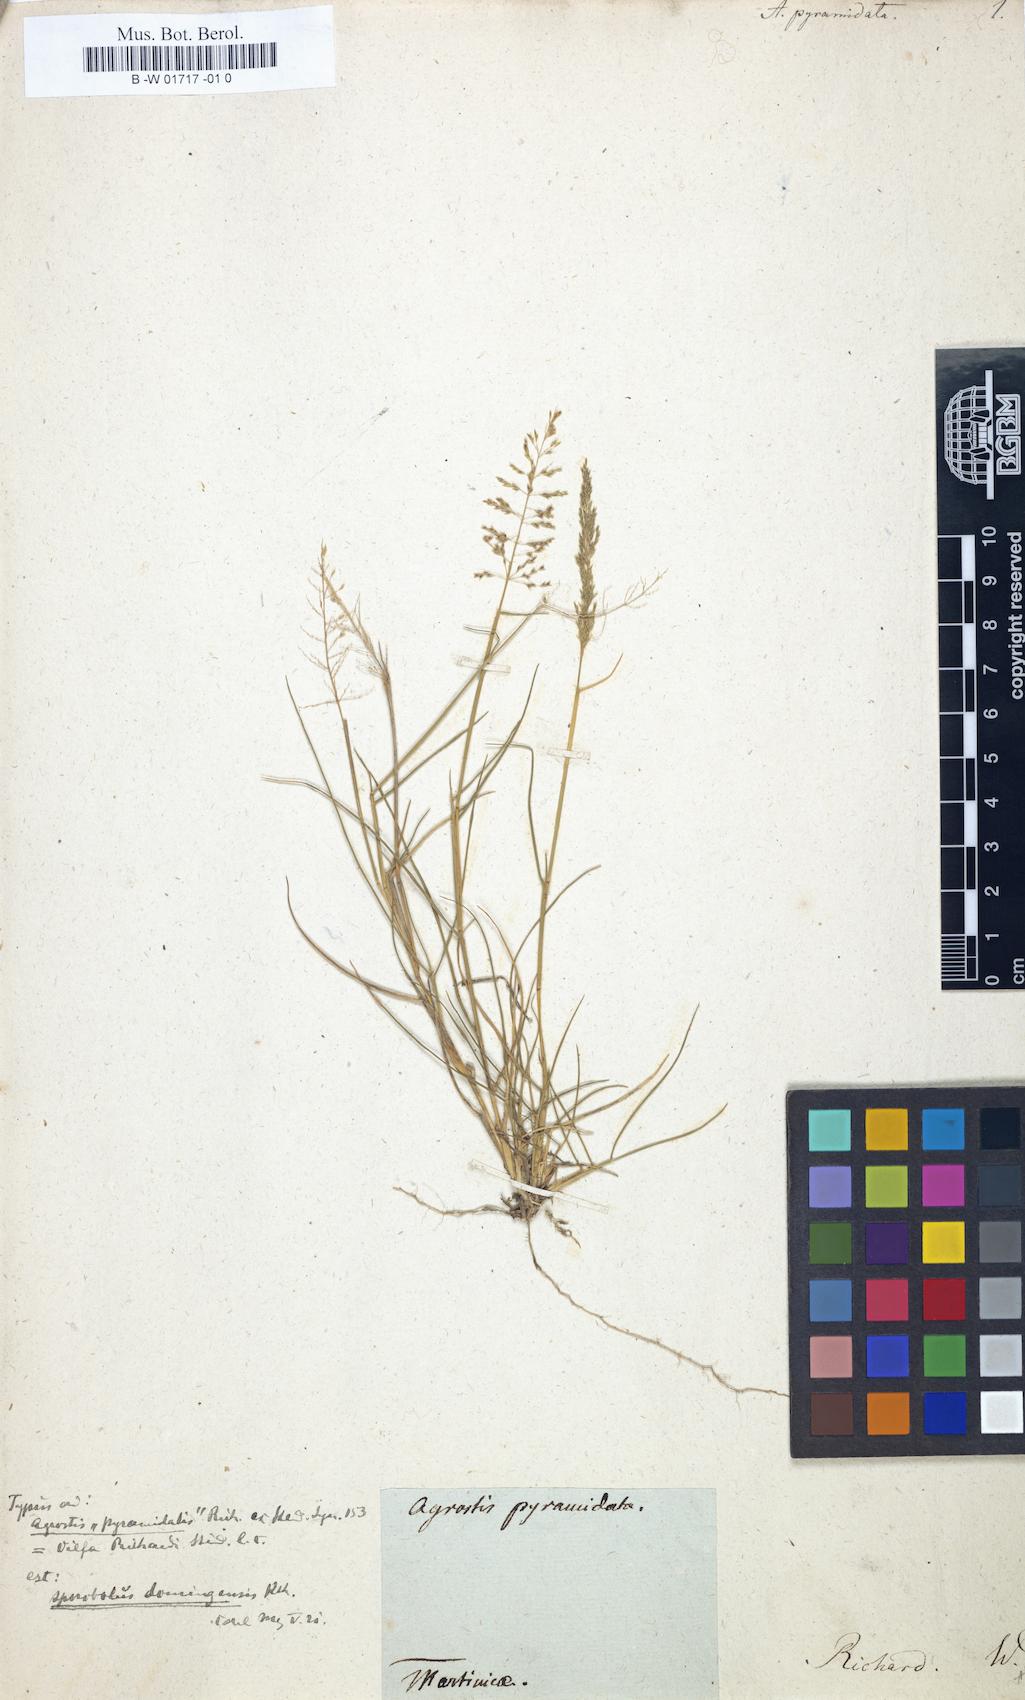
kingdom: Plantae
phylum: Tracheophyta
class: Liliopsida
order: Poales
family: Poaceae
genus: Sporobolus
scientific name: Sporobolus pyramidatus
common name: Whorled dropseed
